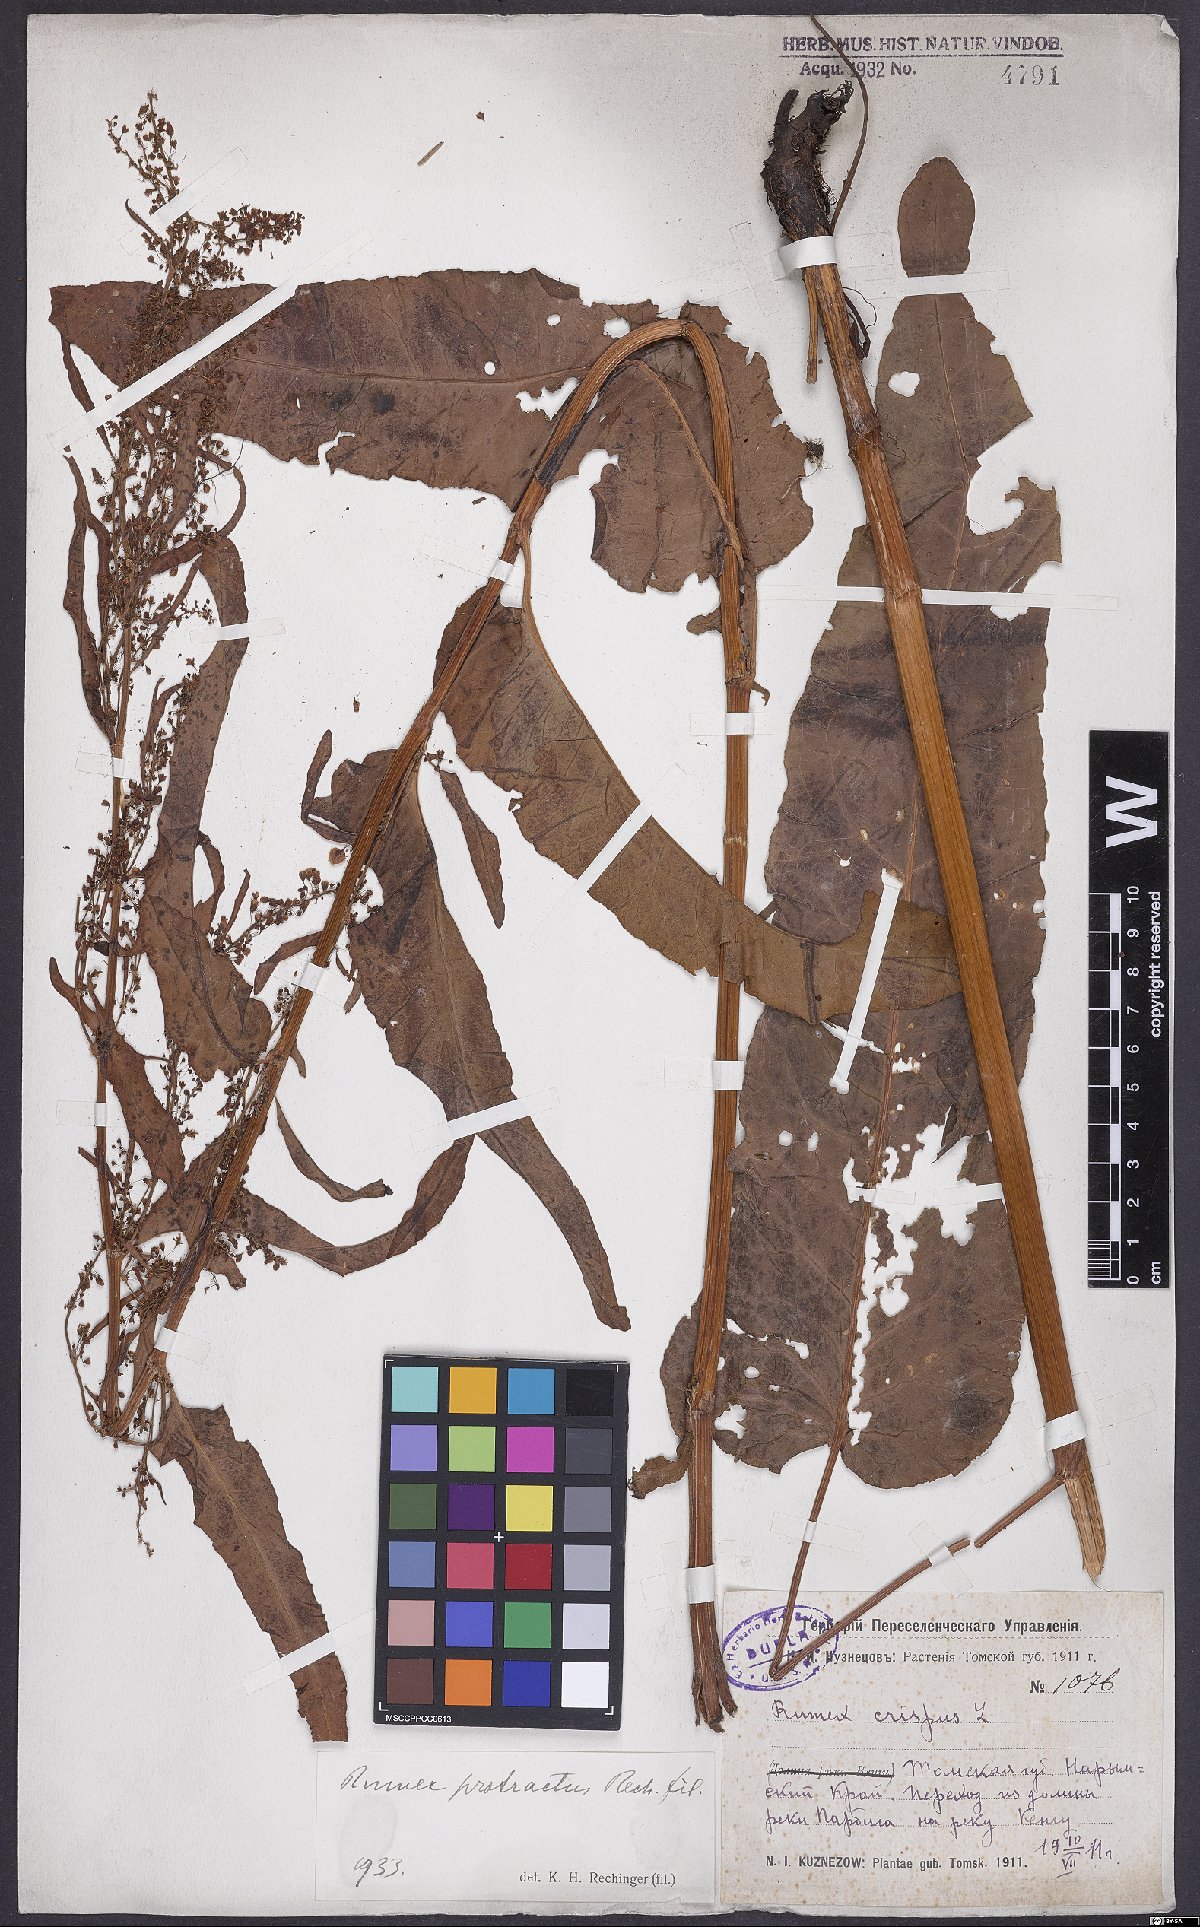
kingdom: Plantae
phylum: Tracheophyta
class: Magnoliopsida
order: Caryophyllales
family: Polygonaceae
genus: Rumex
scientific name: Rumex aquaticus
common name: Scottish dock
